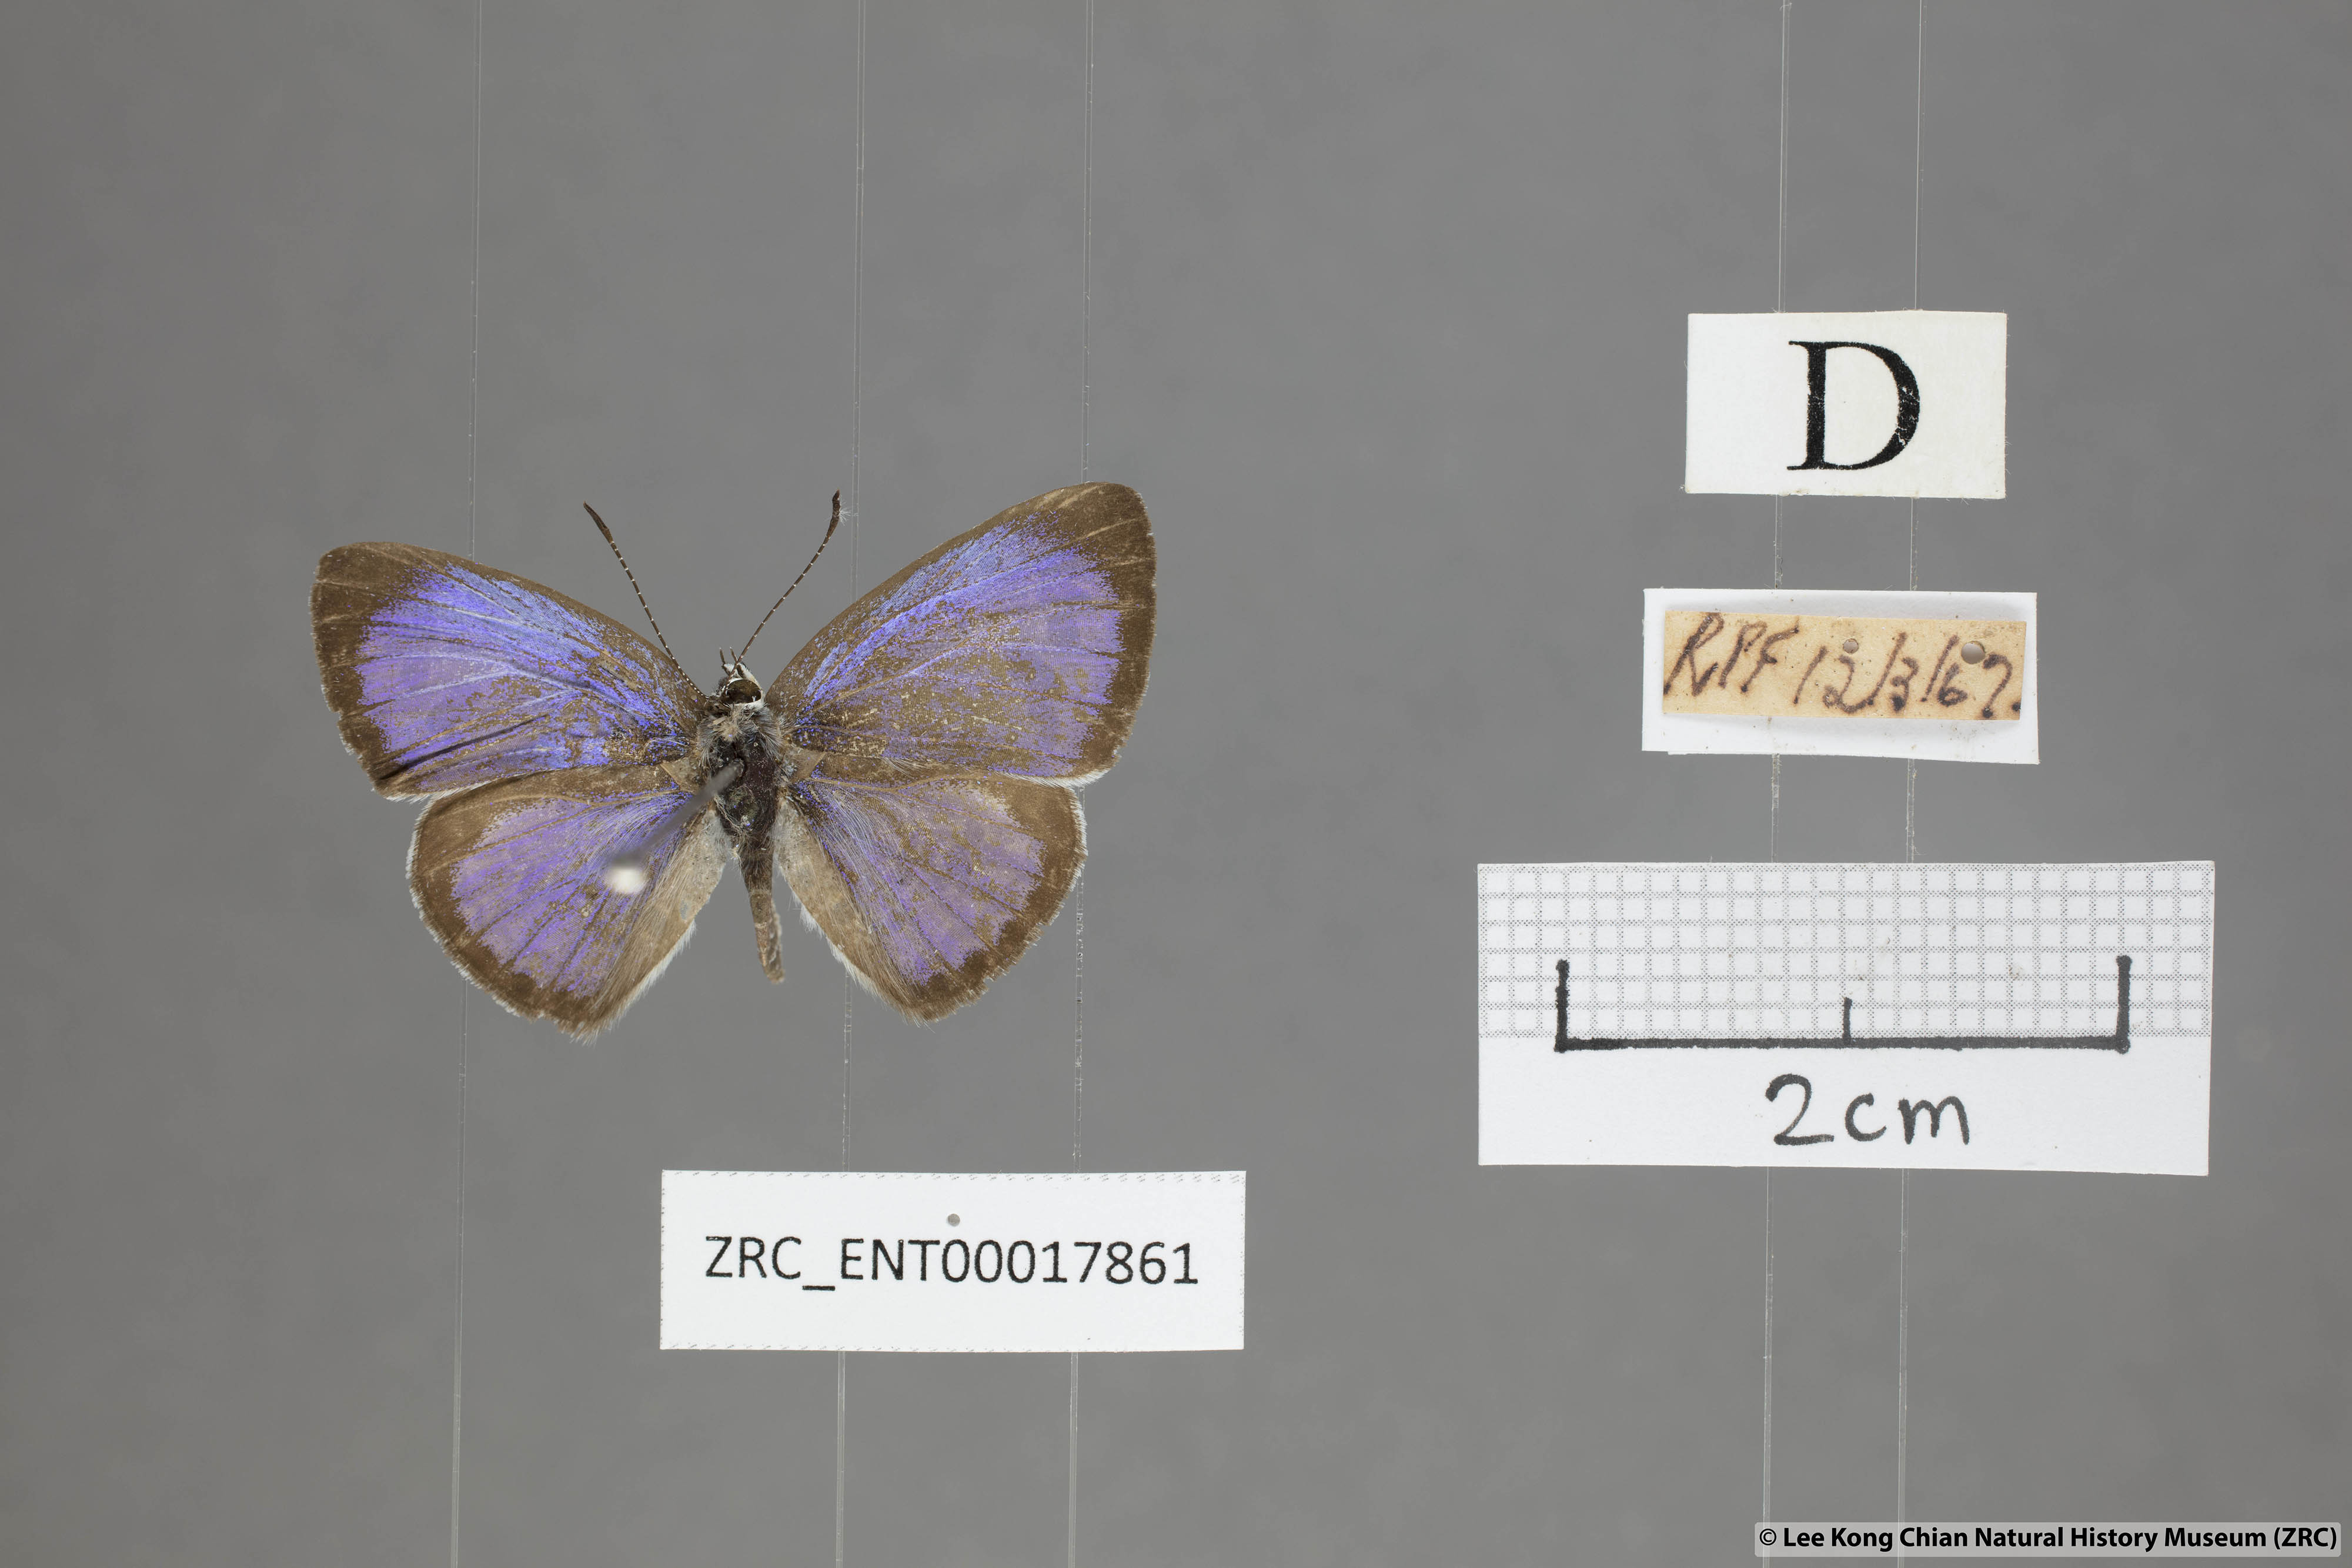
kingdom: Animalia
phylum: Arthropoda
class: Insecta
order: Lepidoptera
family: Lycaenidae
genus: Acytolepis
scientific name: Acytolepis puspa
